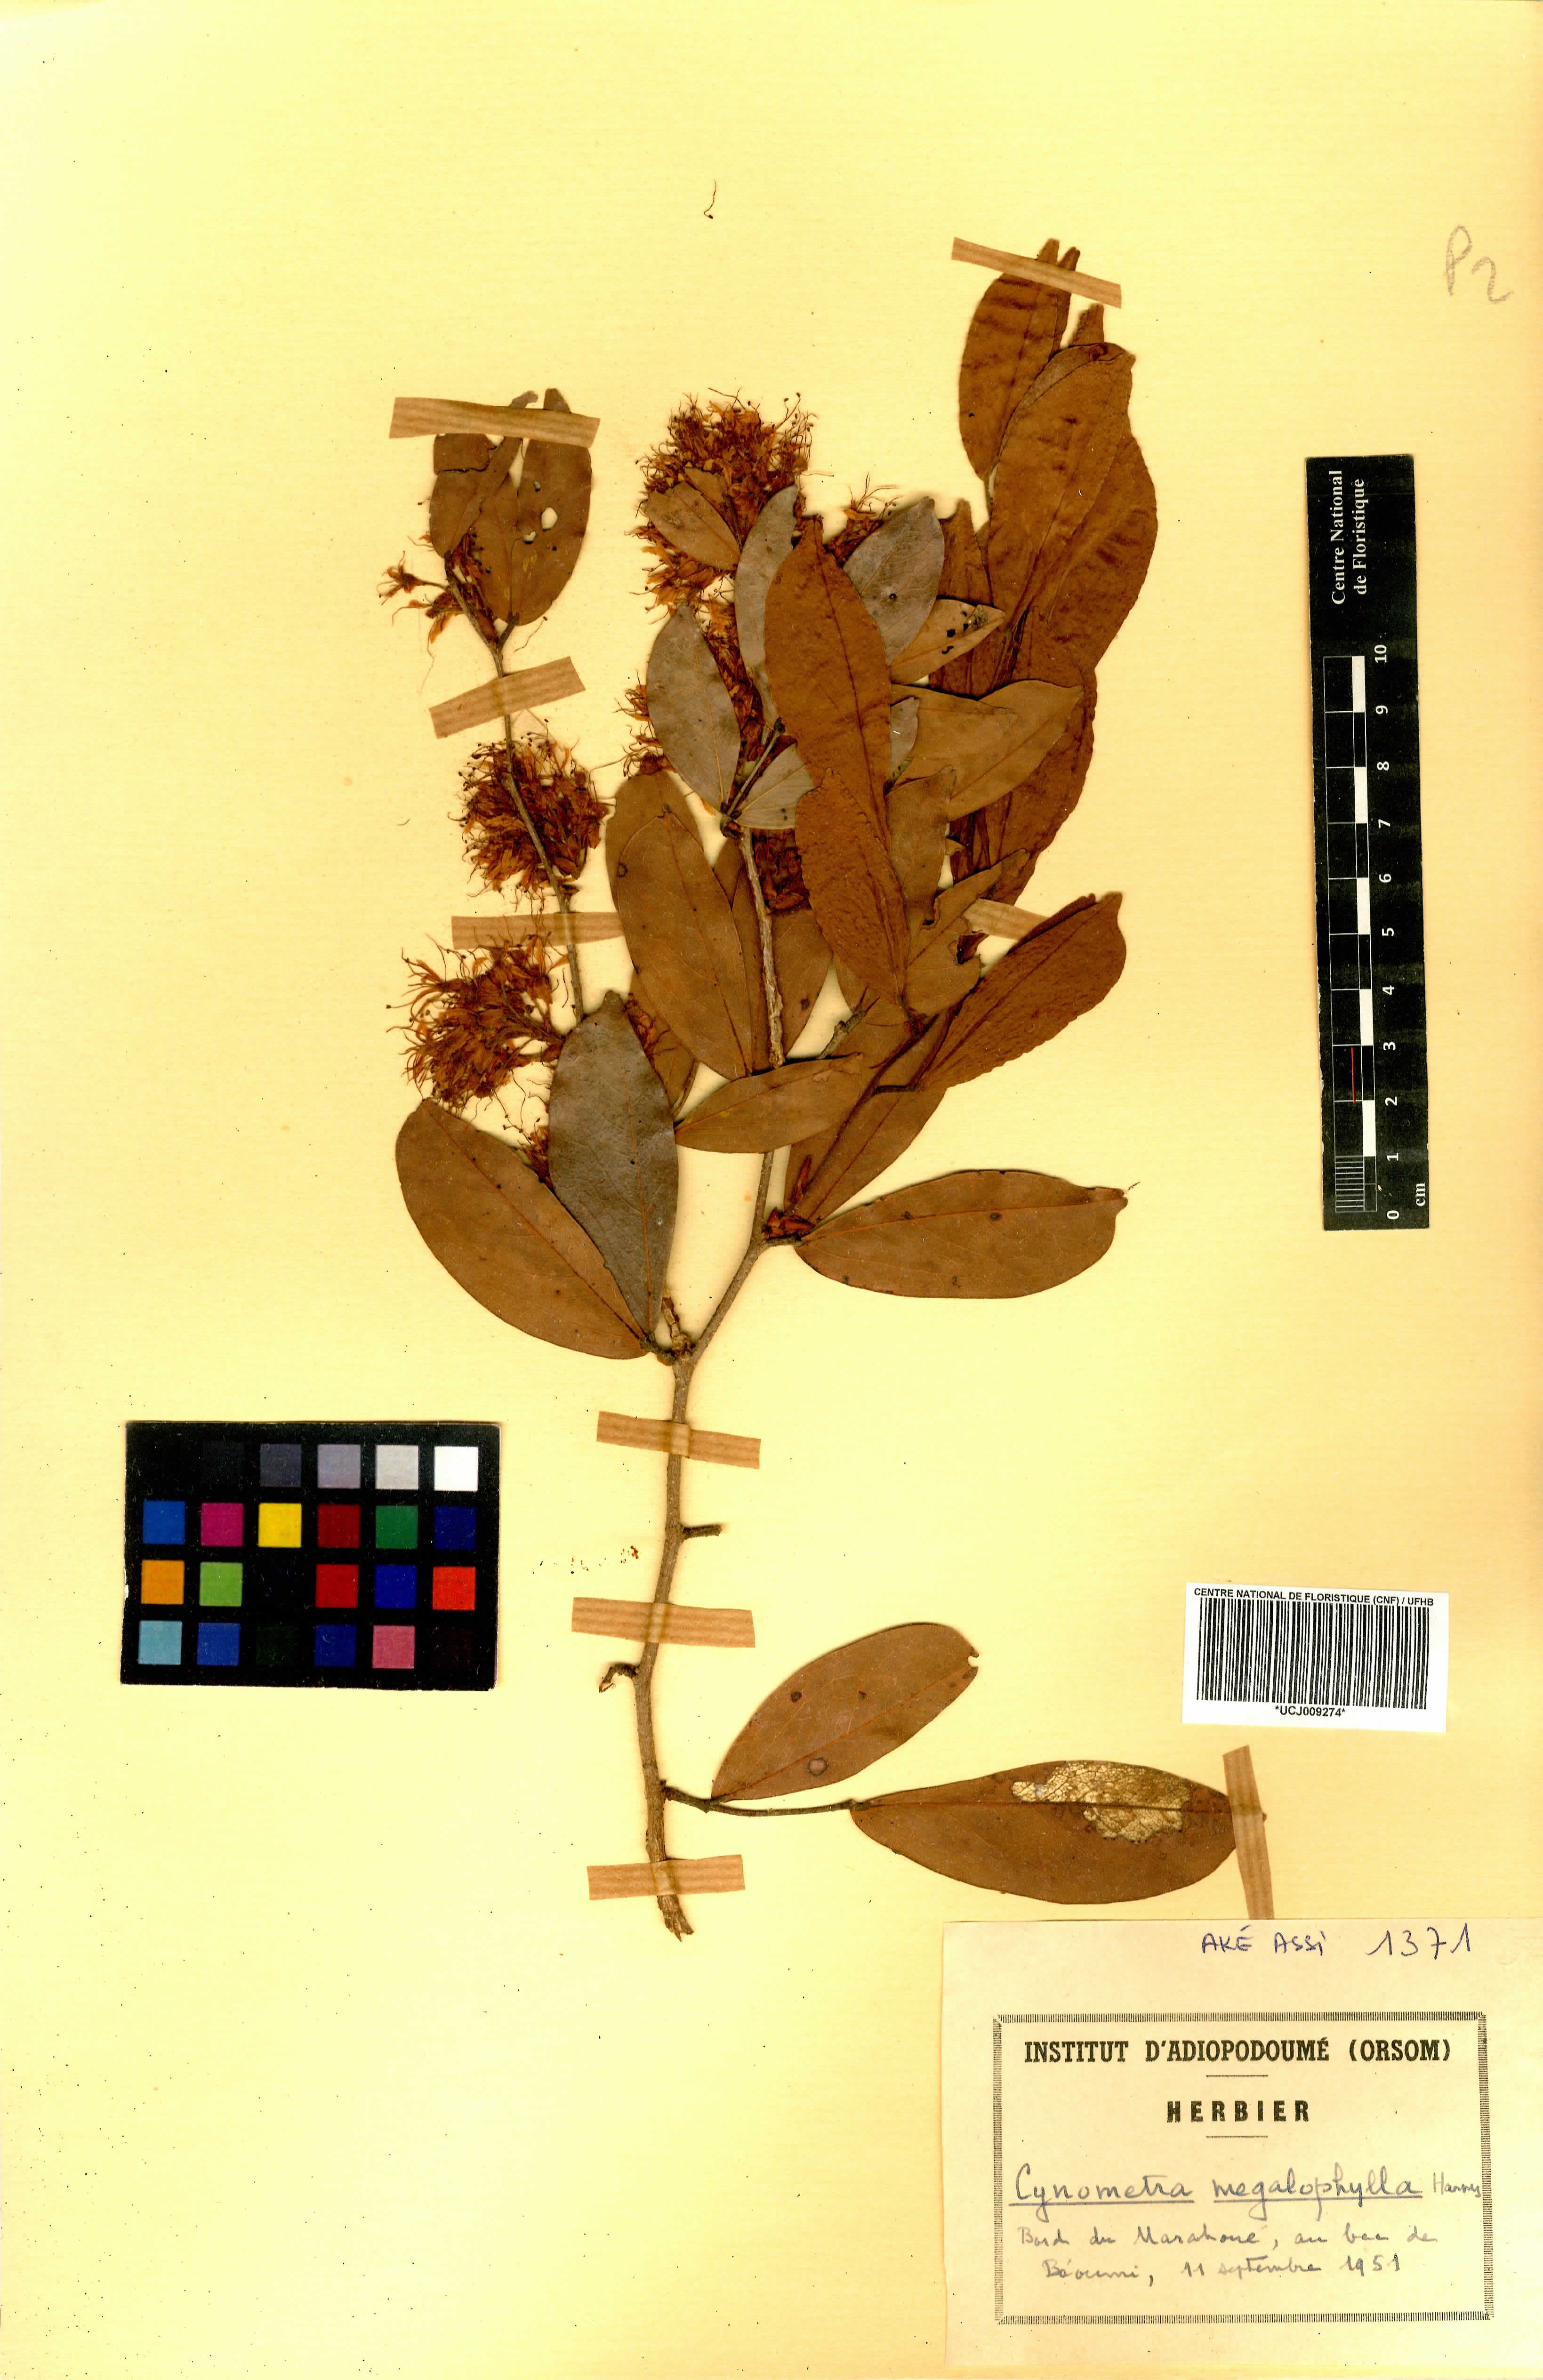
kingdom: Plantae
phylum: Tracheophyta
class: Magnoliopsida
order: Fabales
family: Fabaceae
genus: Cynometra
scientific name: Cynometra megalophylla
